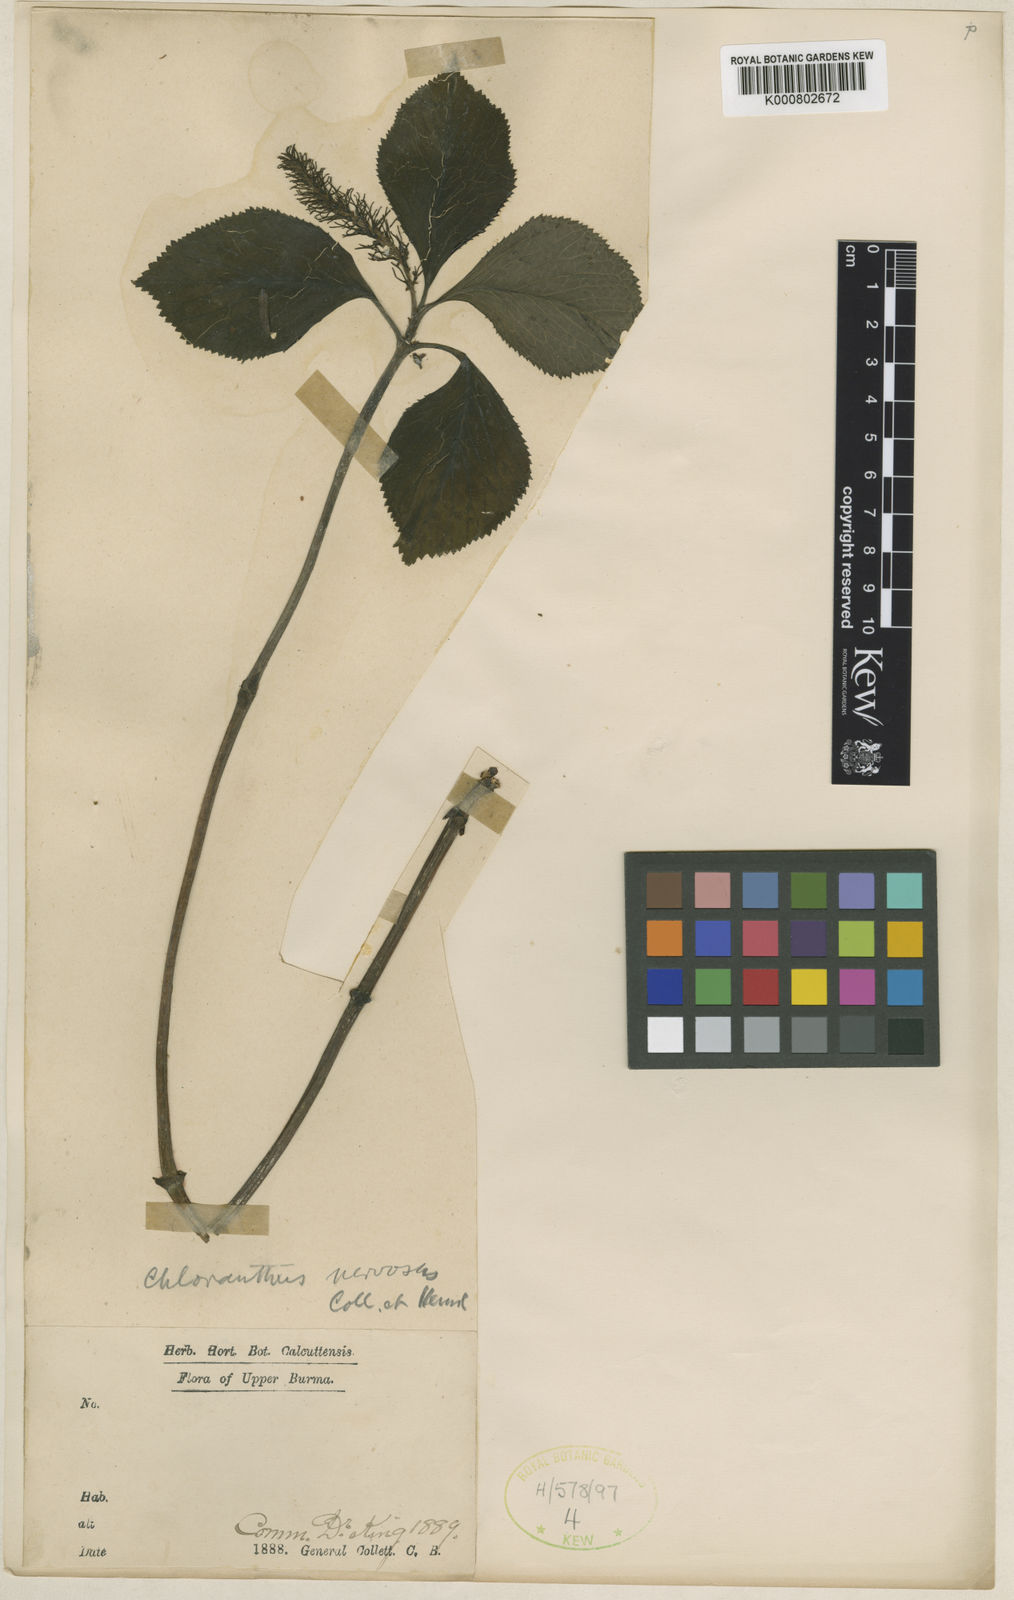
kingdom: Plantae
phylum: Tracheophyta
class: Magnoliopsida
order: Chloranthales
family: Chloranthaceae
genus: Chloranthus
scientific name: Chloranthus nervosus
